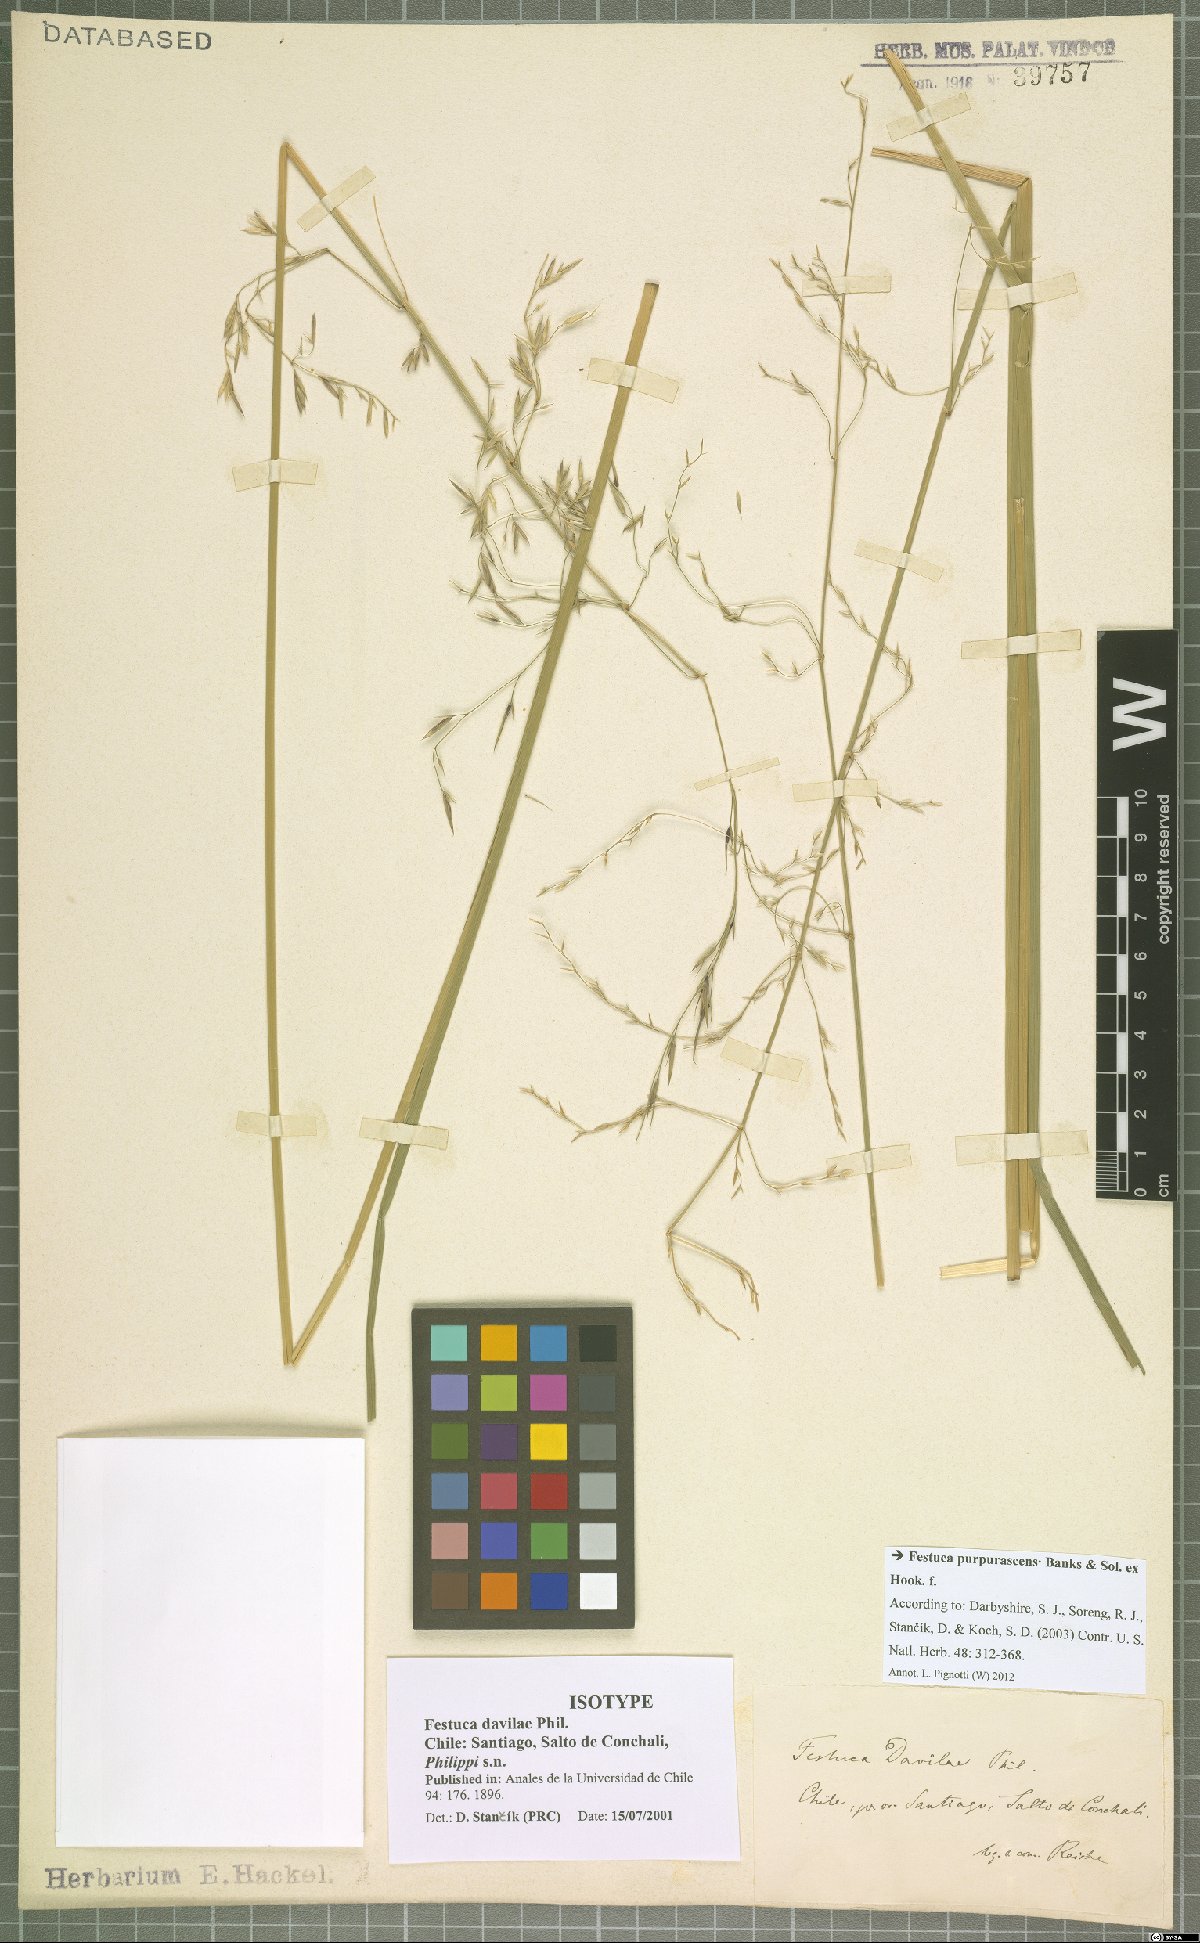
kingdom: Plantae
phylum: Tracheophyta
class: Liliopsida
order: Poales
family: Poaceae
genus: Festuca
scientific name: Festuca purpurascens
